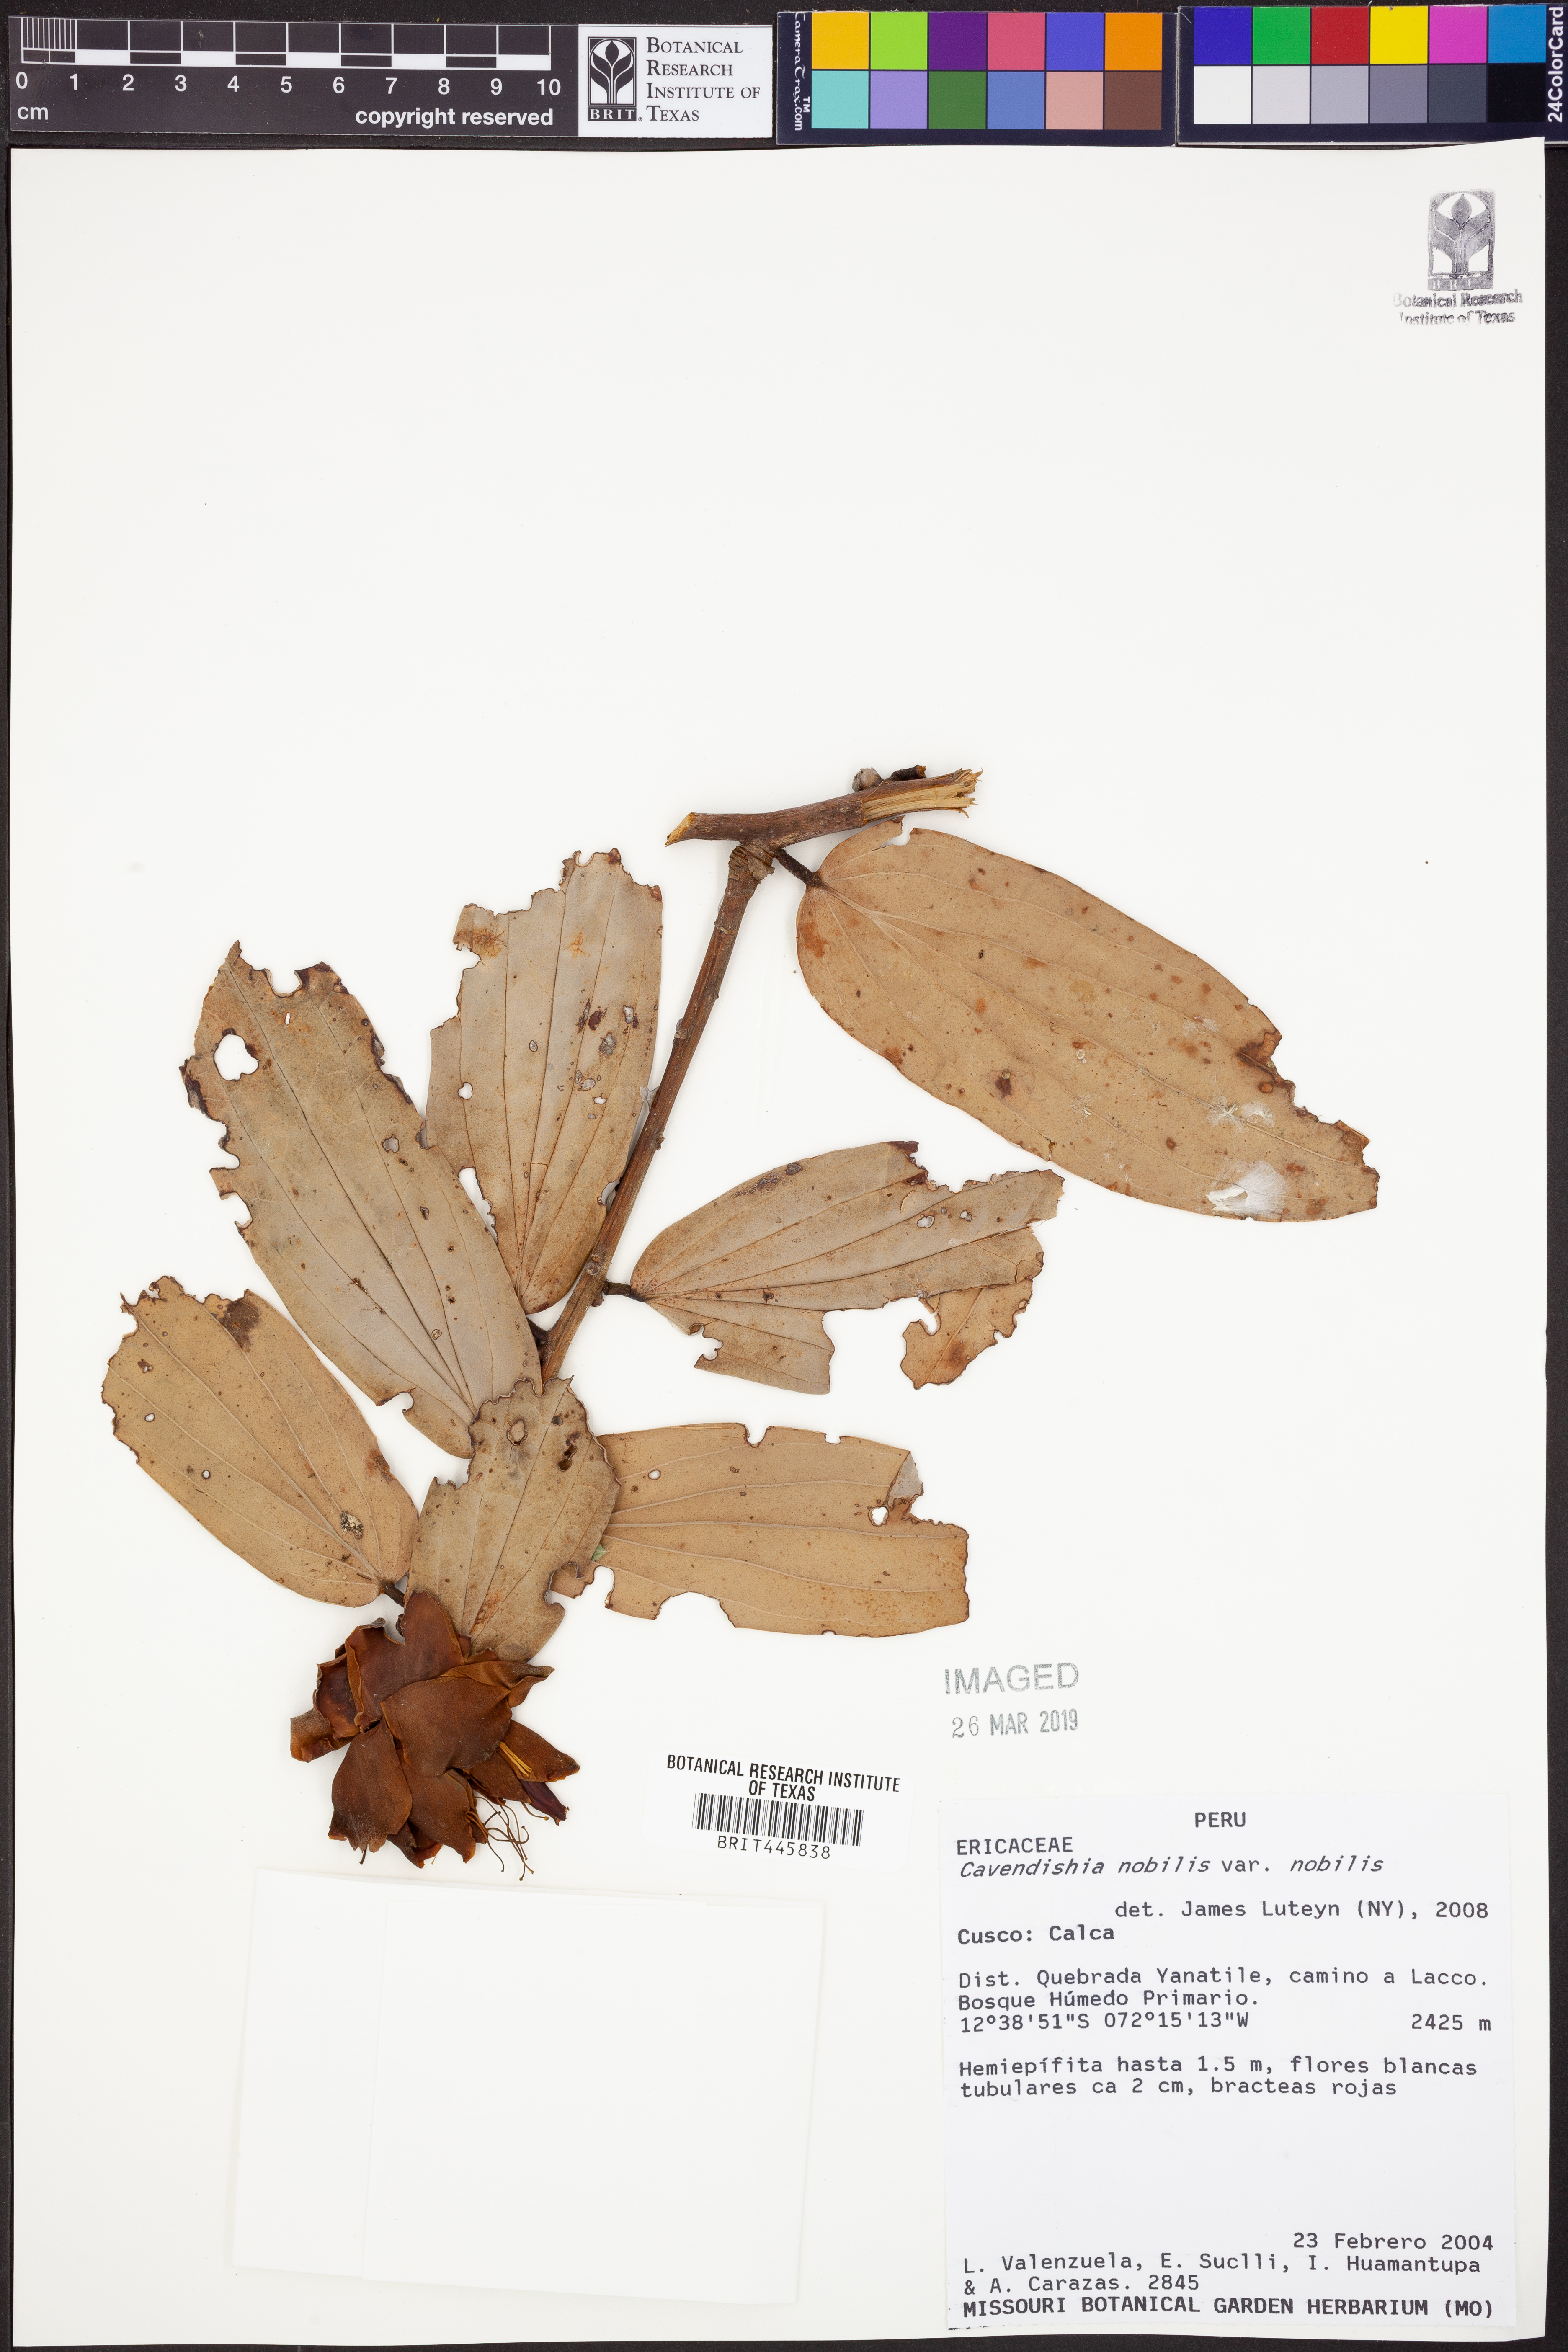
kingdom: Plantae
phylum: Tracheophyta
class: Magnoliopsida
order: Ericales
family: Ericaceae
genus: Cavendishia
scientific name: Cavendishia nobilis
